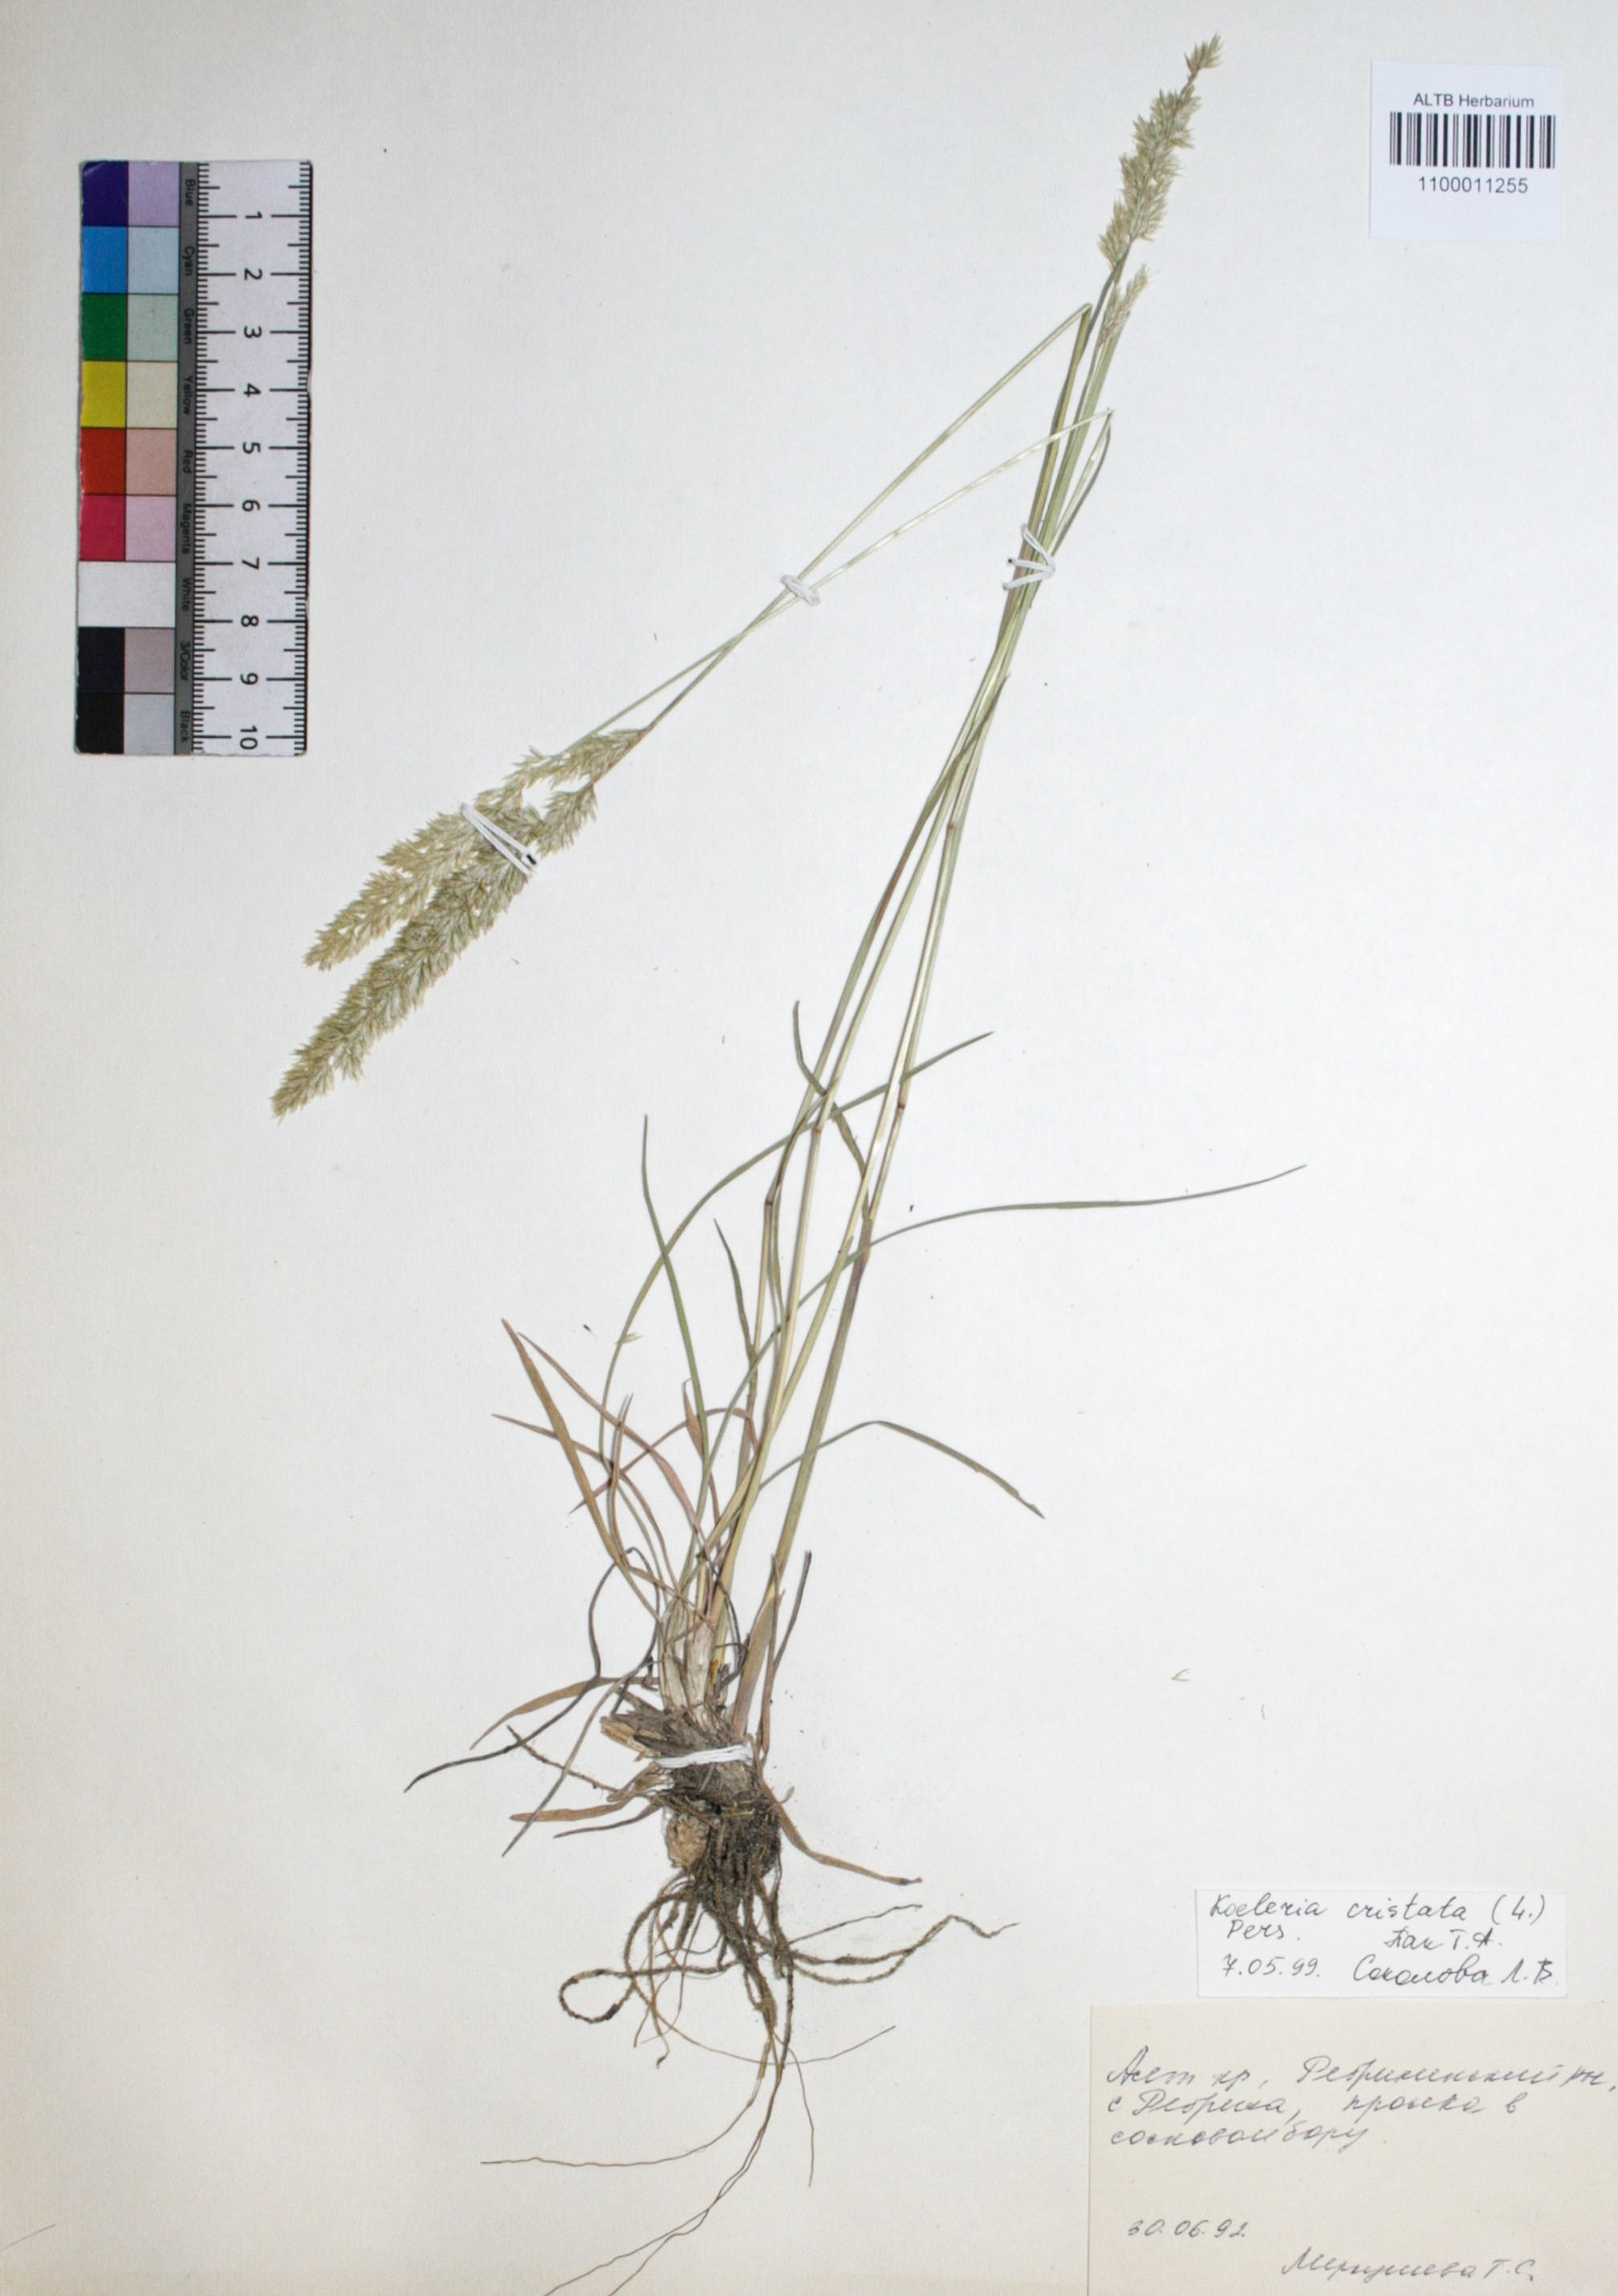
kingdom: Plantae
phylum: Tracheophyta
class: Liliopsida
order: Poales
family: Poaceae
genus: Koeleria
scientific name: Koeleria glauca
